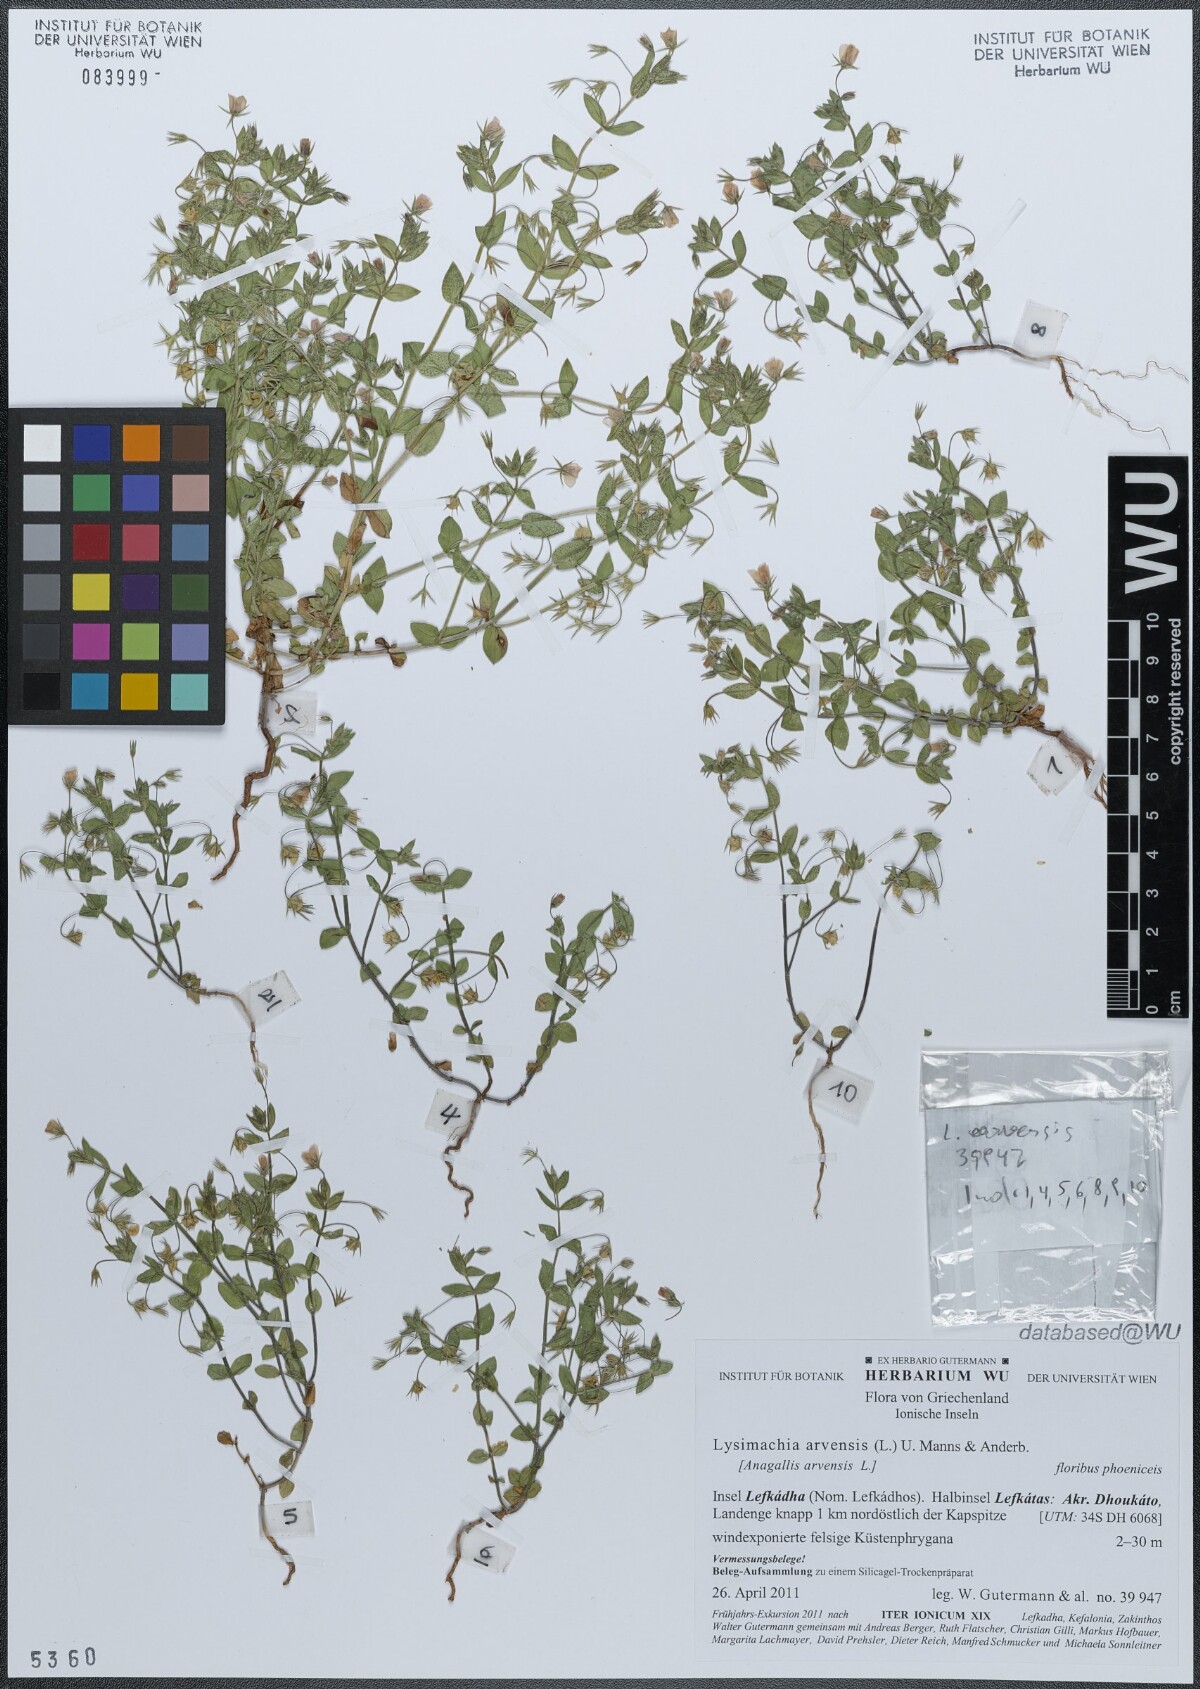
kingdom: Plantae
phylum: Tracheophyta
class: Magnoliopsida
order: Ericales
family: Primulaceae
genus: Lysimachia
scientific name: Lysimachia arvensis
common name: Scarlet pimpernel
